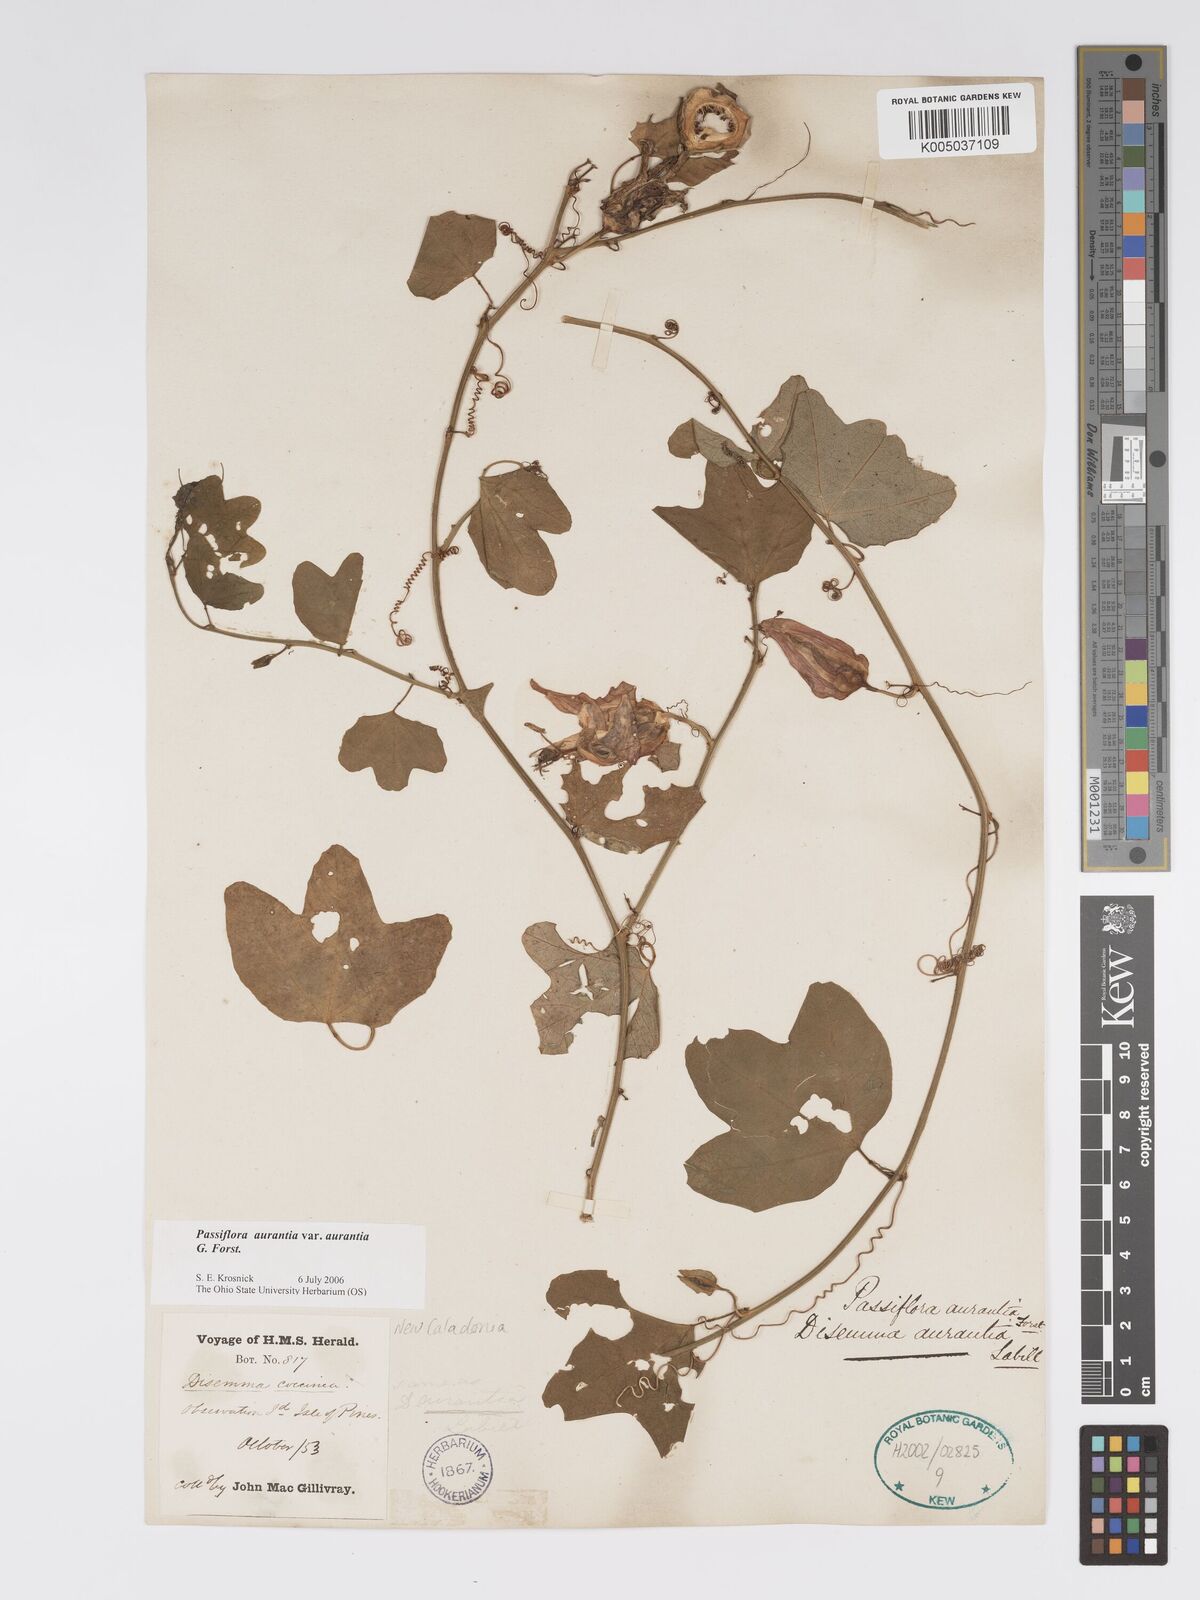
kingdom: Plantae
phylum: Tracheophyta
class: Magnoliopsida
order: Malpighiales
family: Passifloraceae
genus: Passiflora
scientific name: Passiflora aurantia
